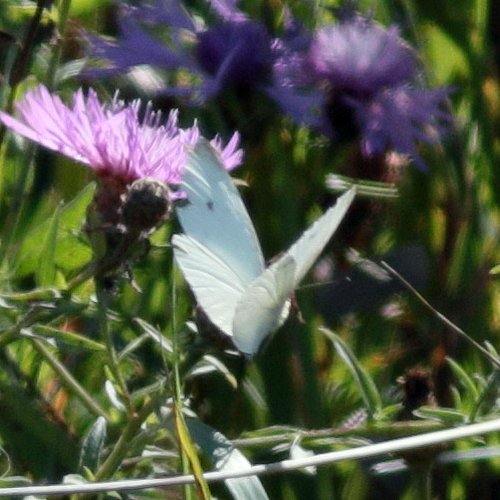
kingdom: Animalia
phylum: Arthropoda
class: Insecta
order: Lepidoptera
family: Pieridae
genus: Pieris
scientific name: Pieris rapae
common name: Cabbage White
